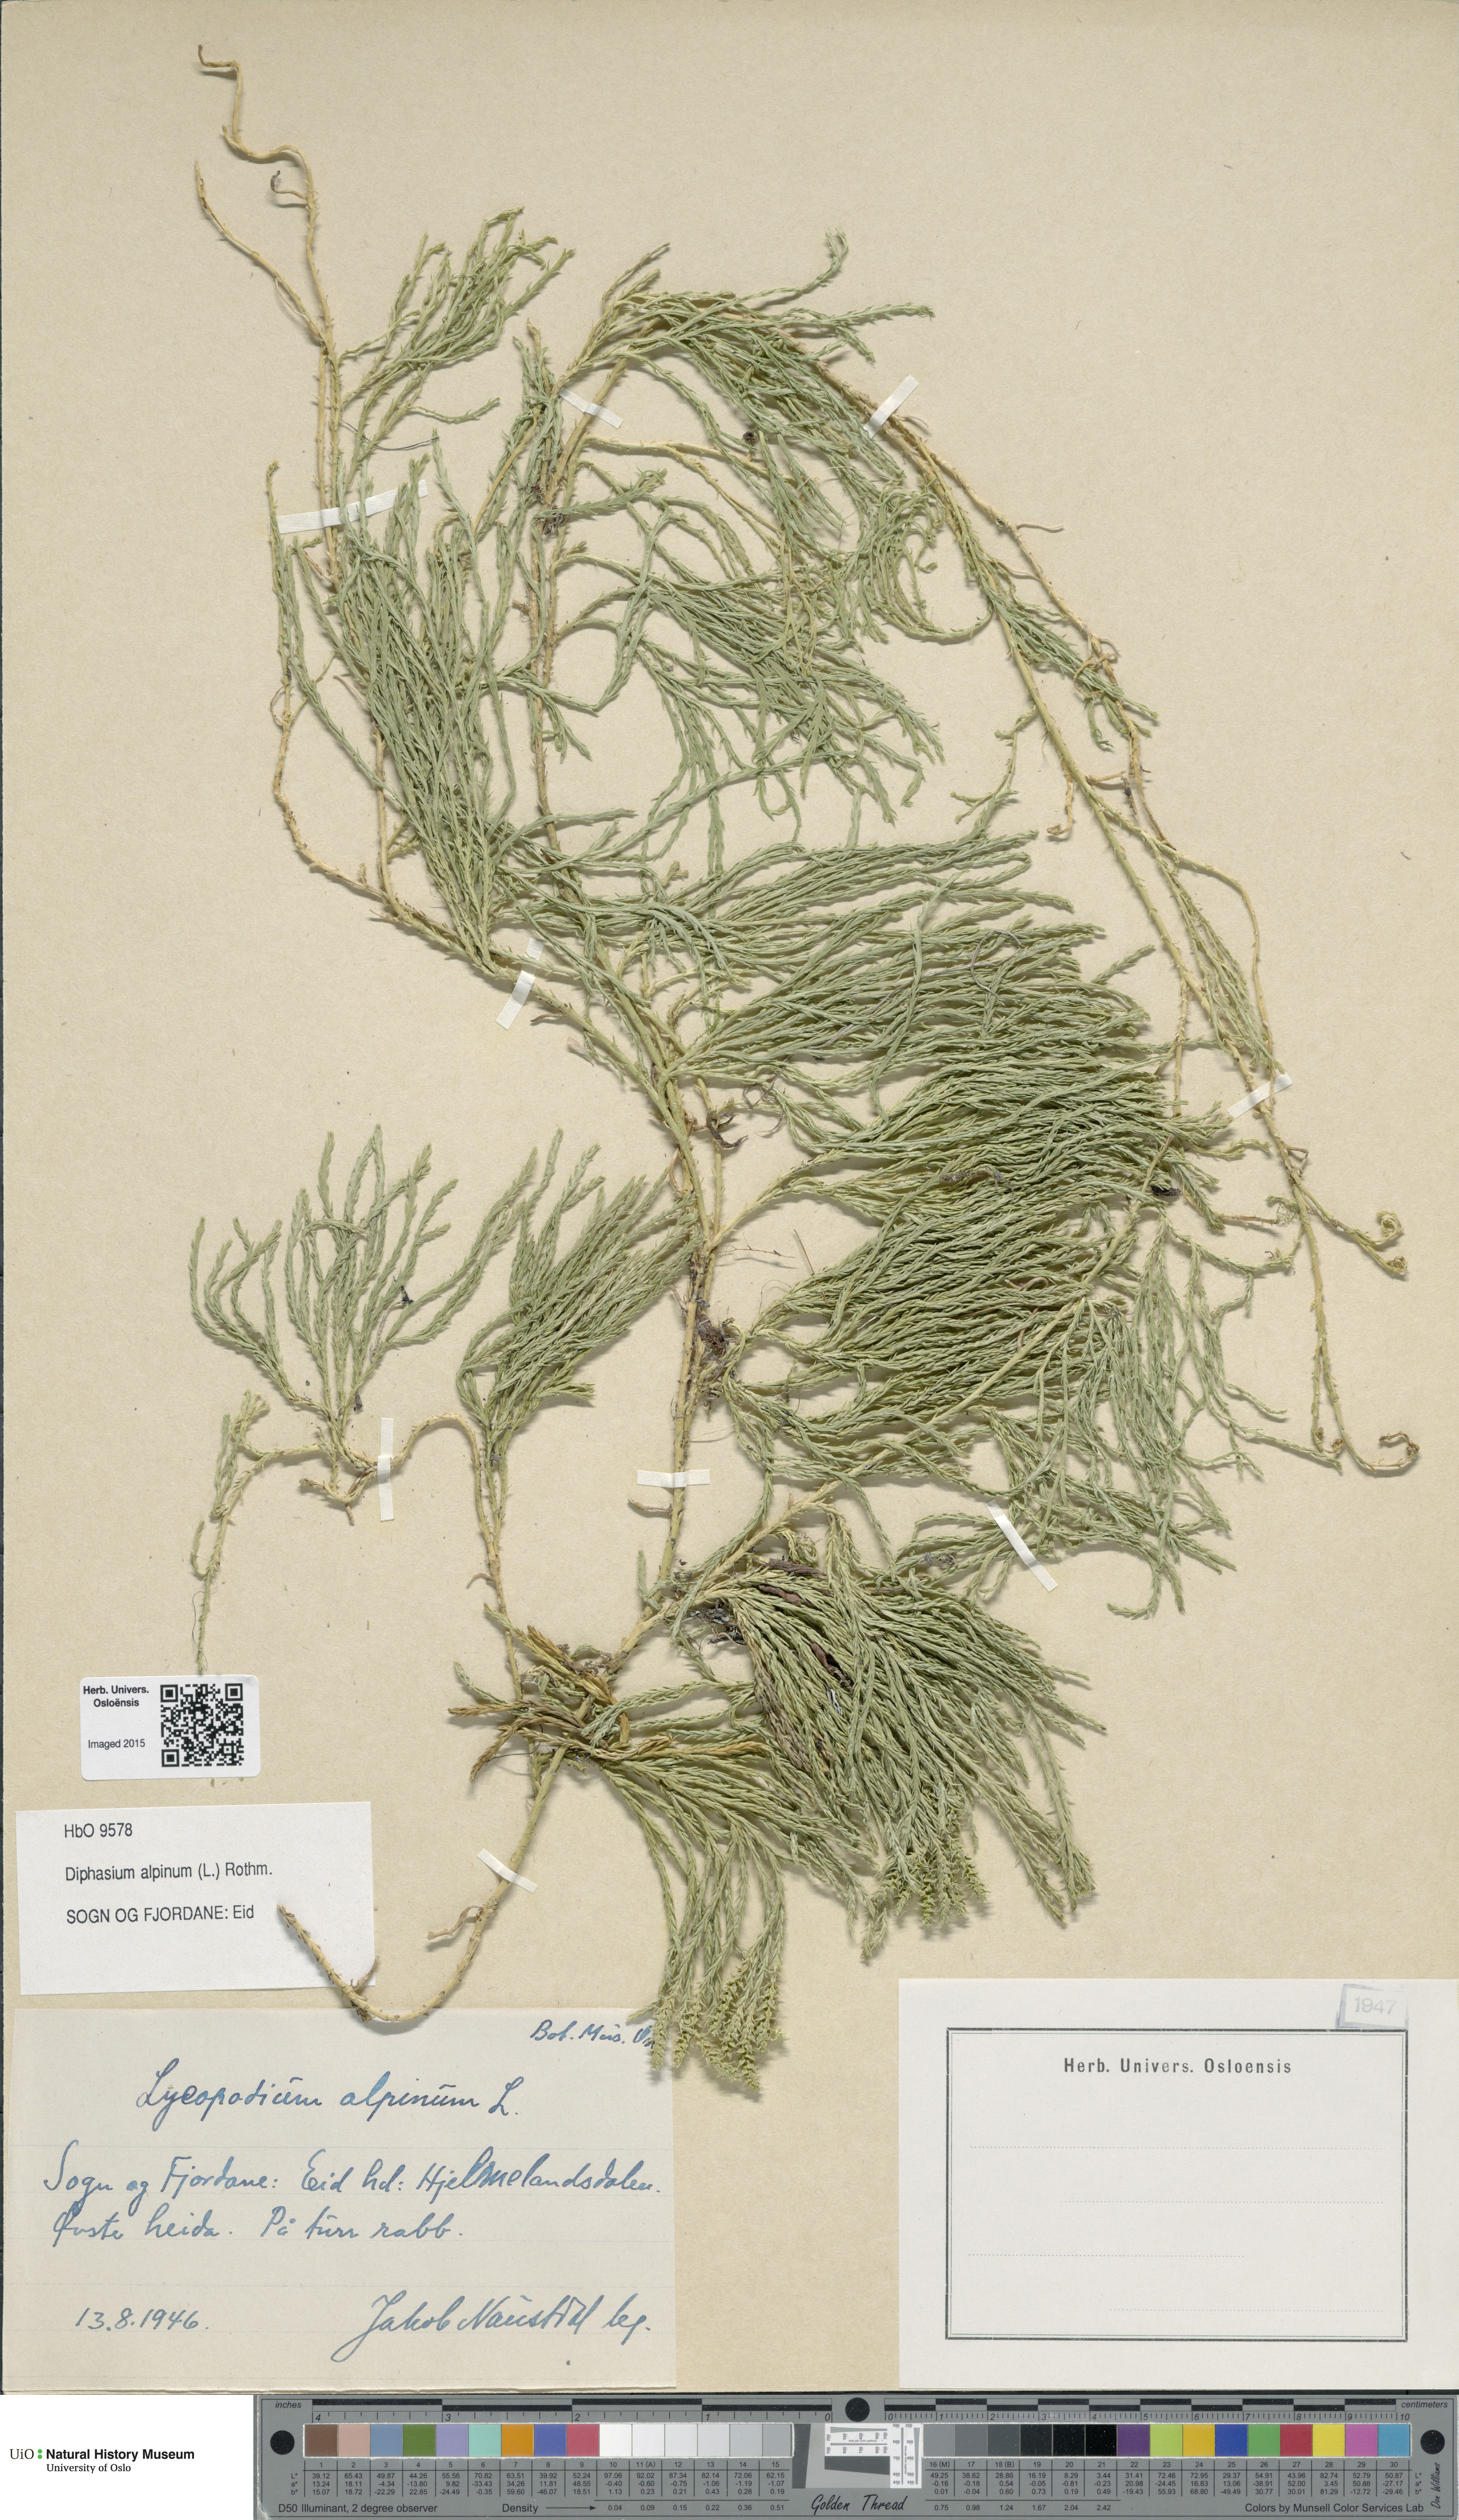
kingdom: Plantae
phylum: Tracheophyta
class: Lycopodiopsida
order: Lycopodiales
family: Lycopodiaceae
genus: Diphasiastrum
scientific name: Diphasiastrum alpinum
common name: Alpine clubmoss
